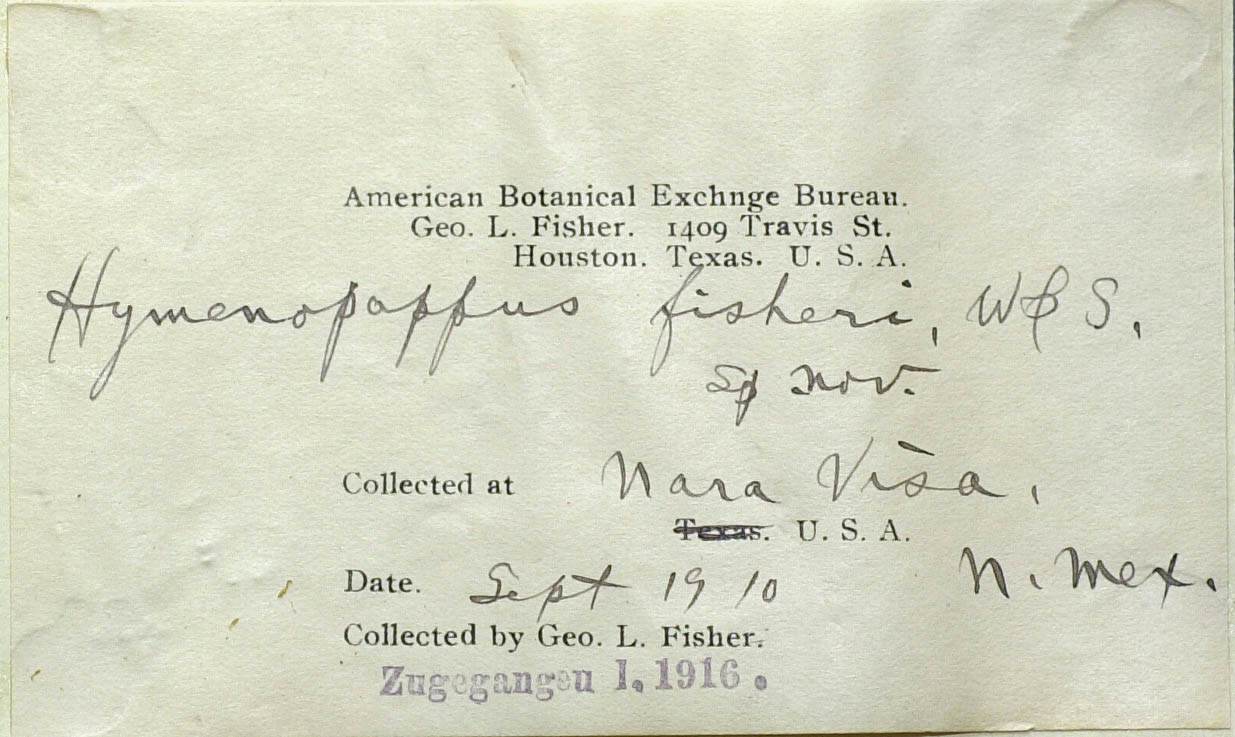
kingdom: Plantae
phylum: Tracheophyta
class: Magnoliopsida
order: Asterales
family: Asteraceae
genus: Hymenopappus
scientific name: Hymenopappus fisheri
